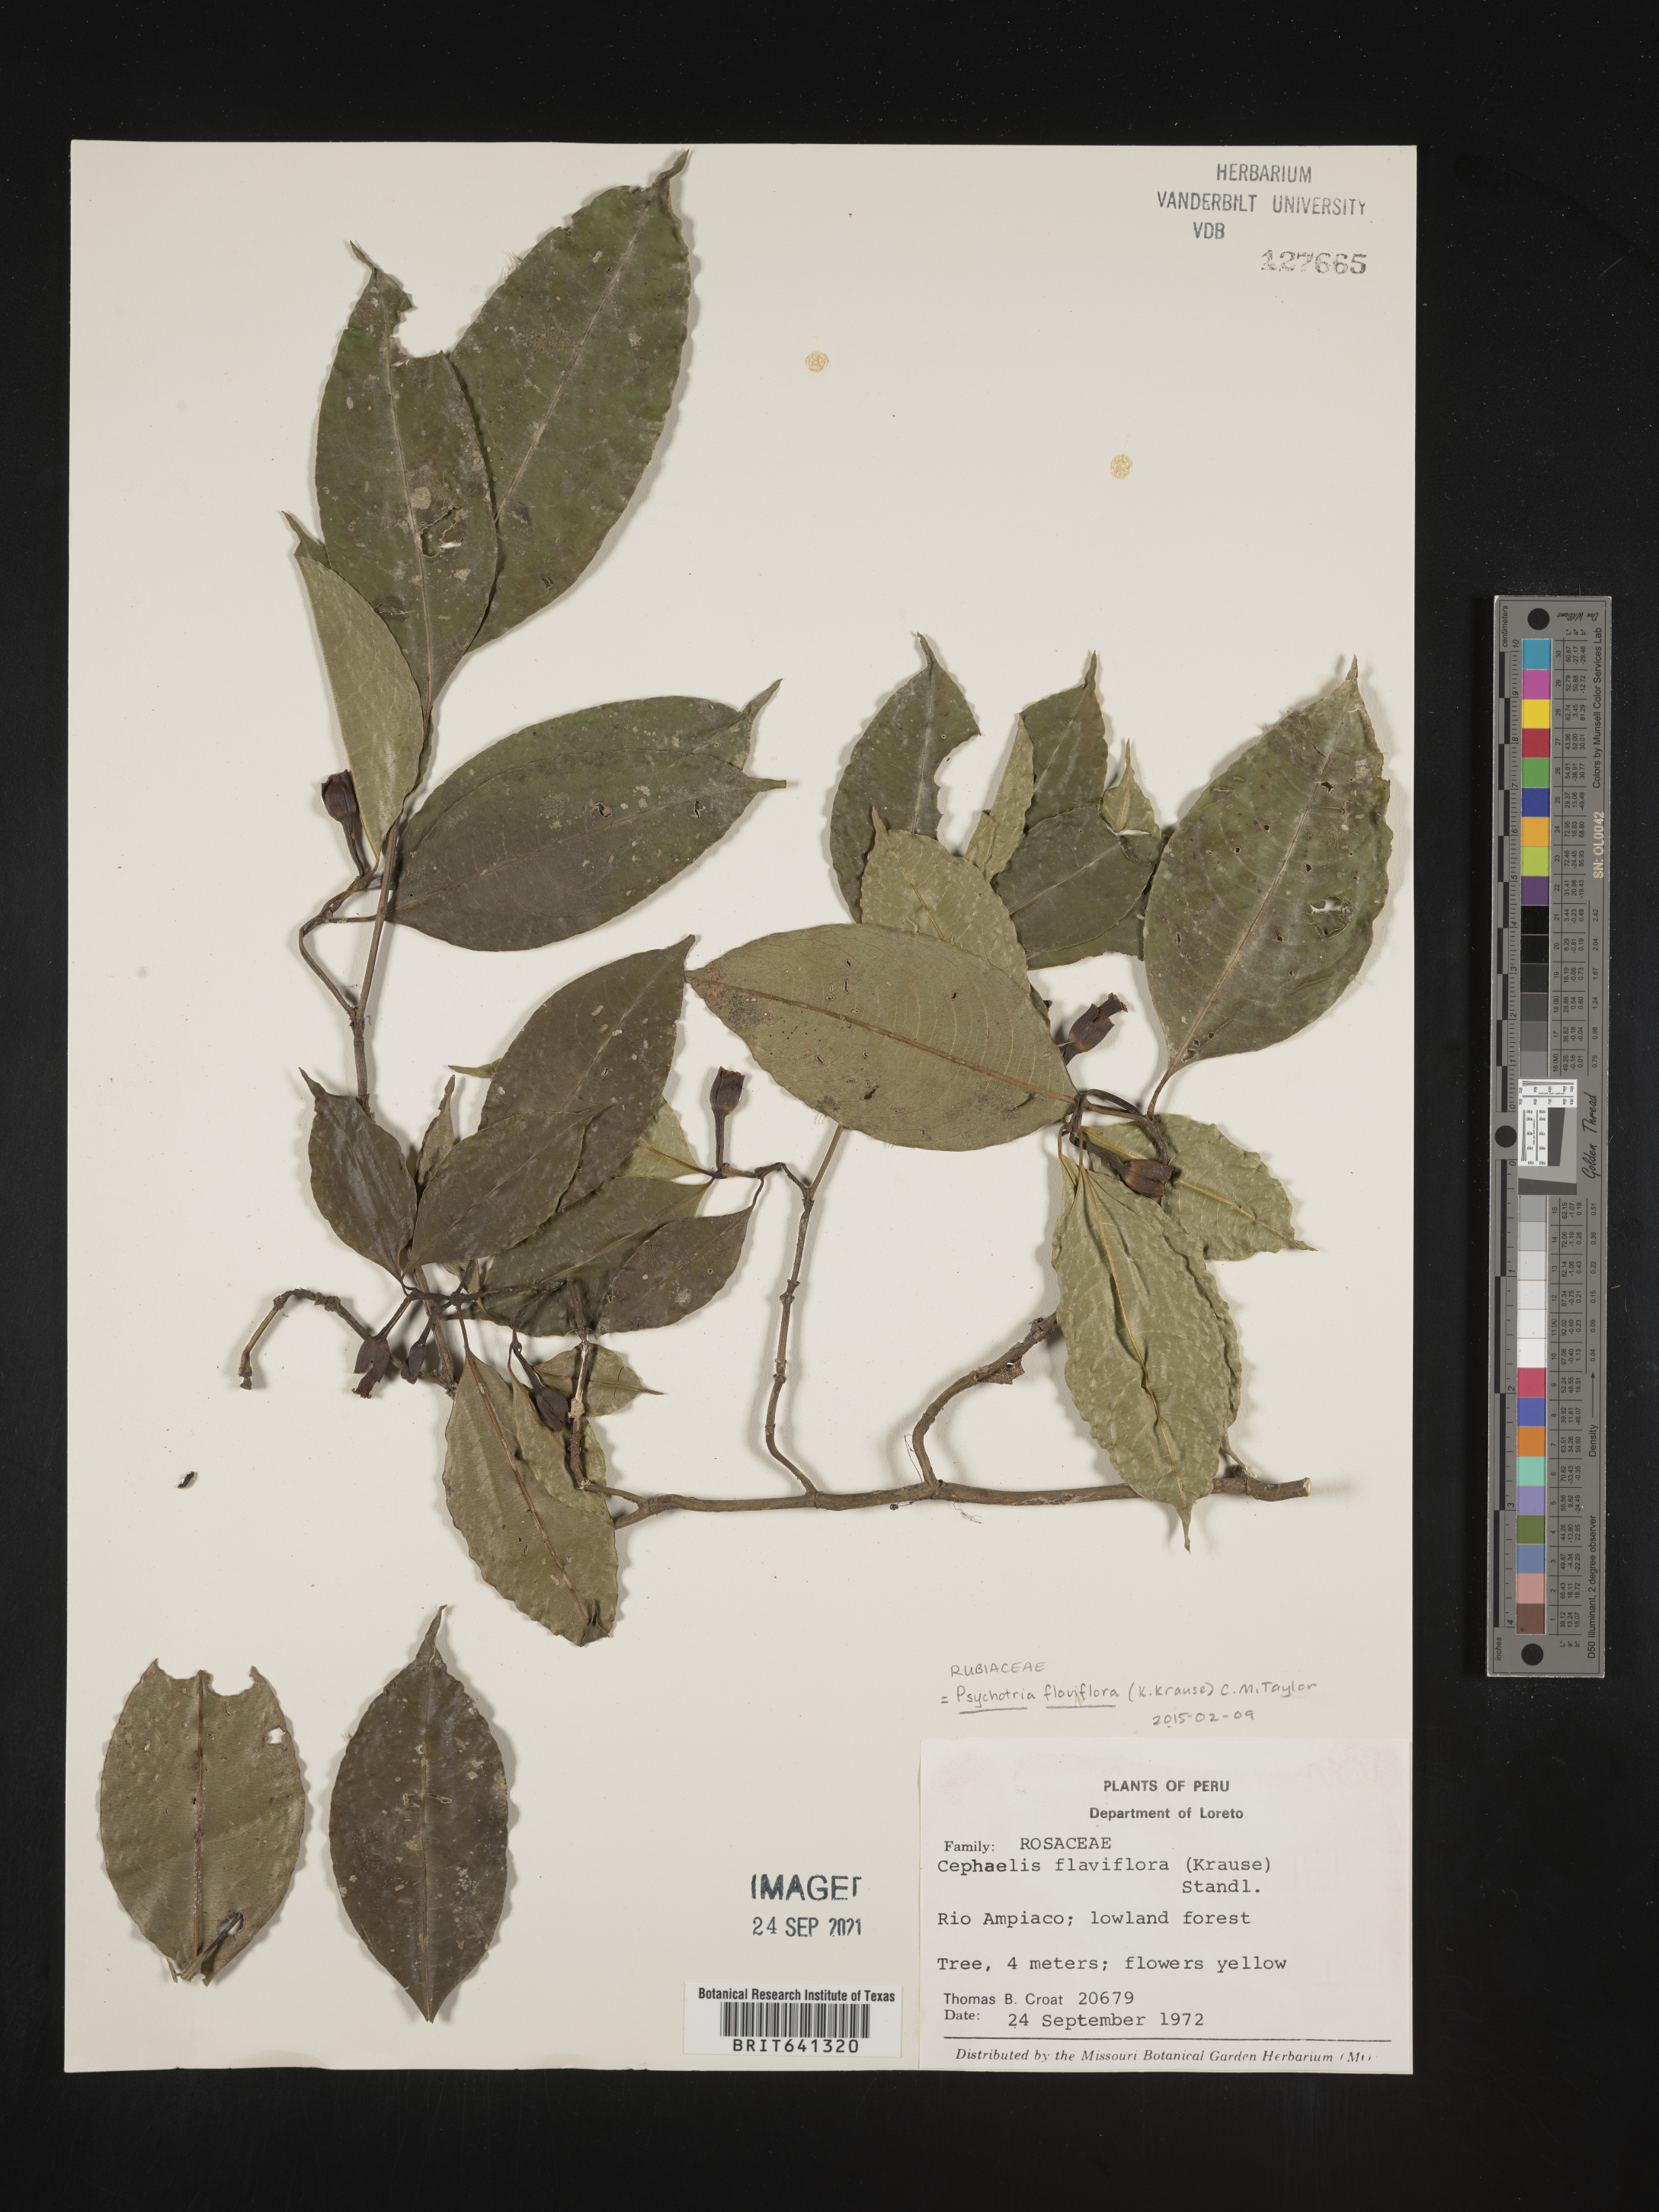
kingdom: Plantae
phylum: Tracheophyta
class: Magnoliopsida
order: Gentianales
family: Rubiaceae
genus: Psychotria
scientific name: Psychotria
